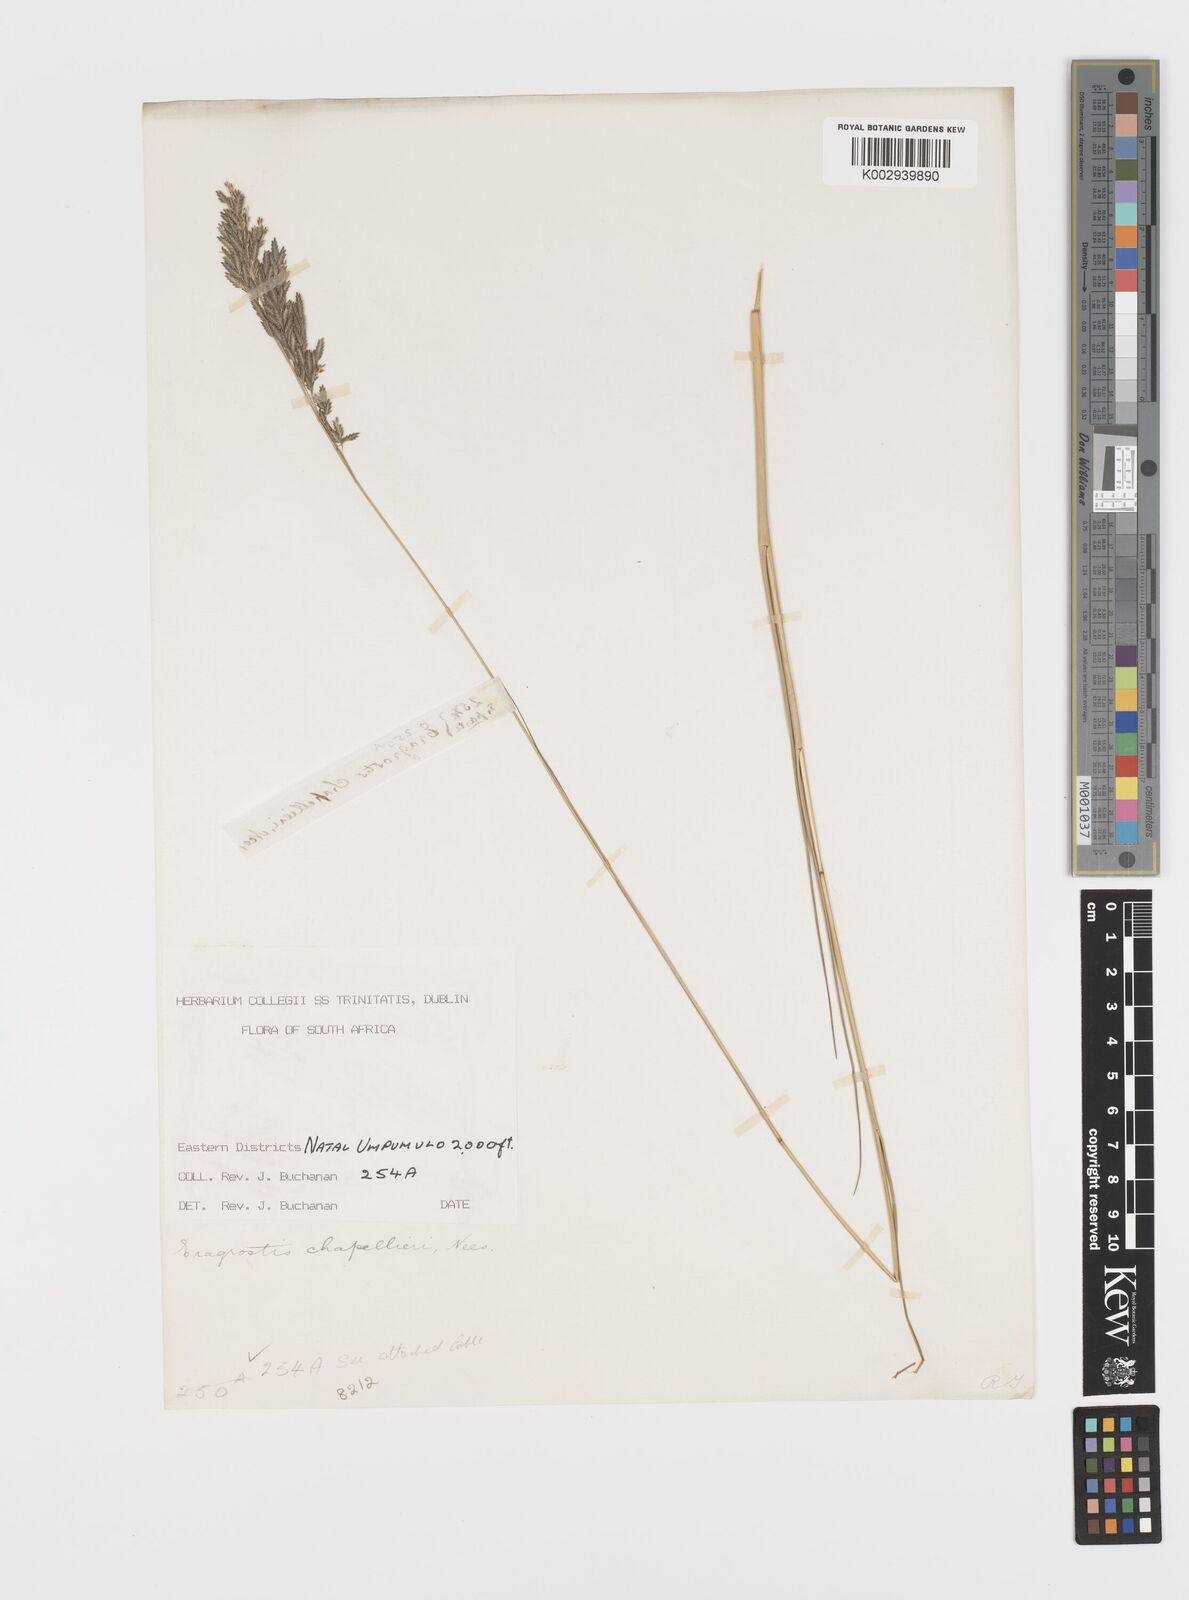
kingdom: Plantae
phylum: Tracheophyta
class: Liliopsida
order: Poales
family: Poaceae
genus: Eragrostis
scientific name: Eragrostis chapelieri
